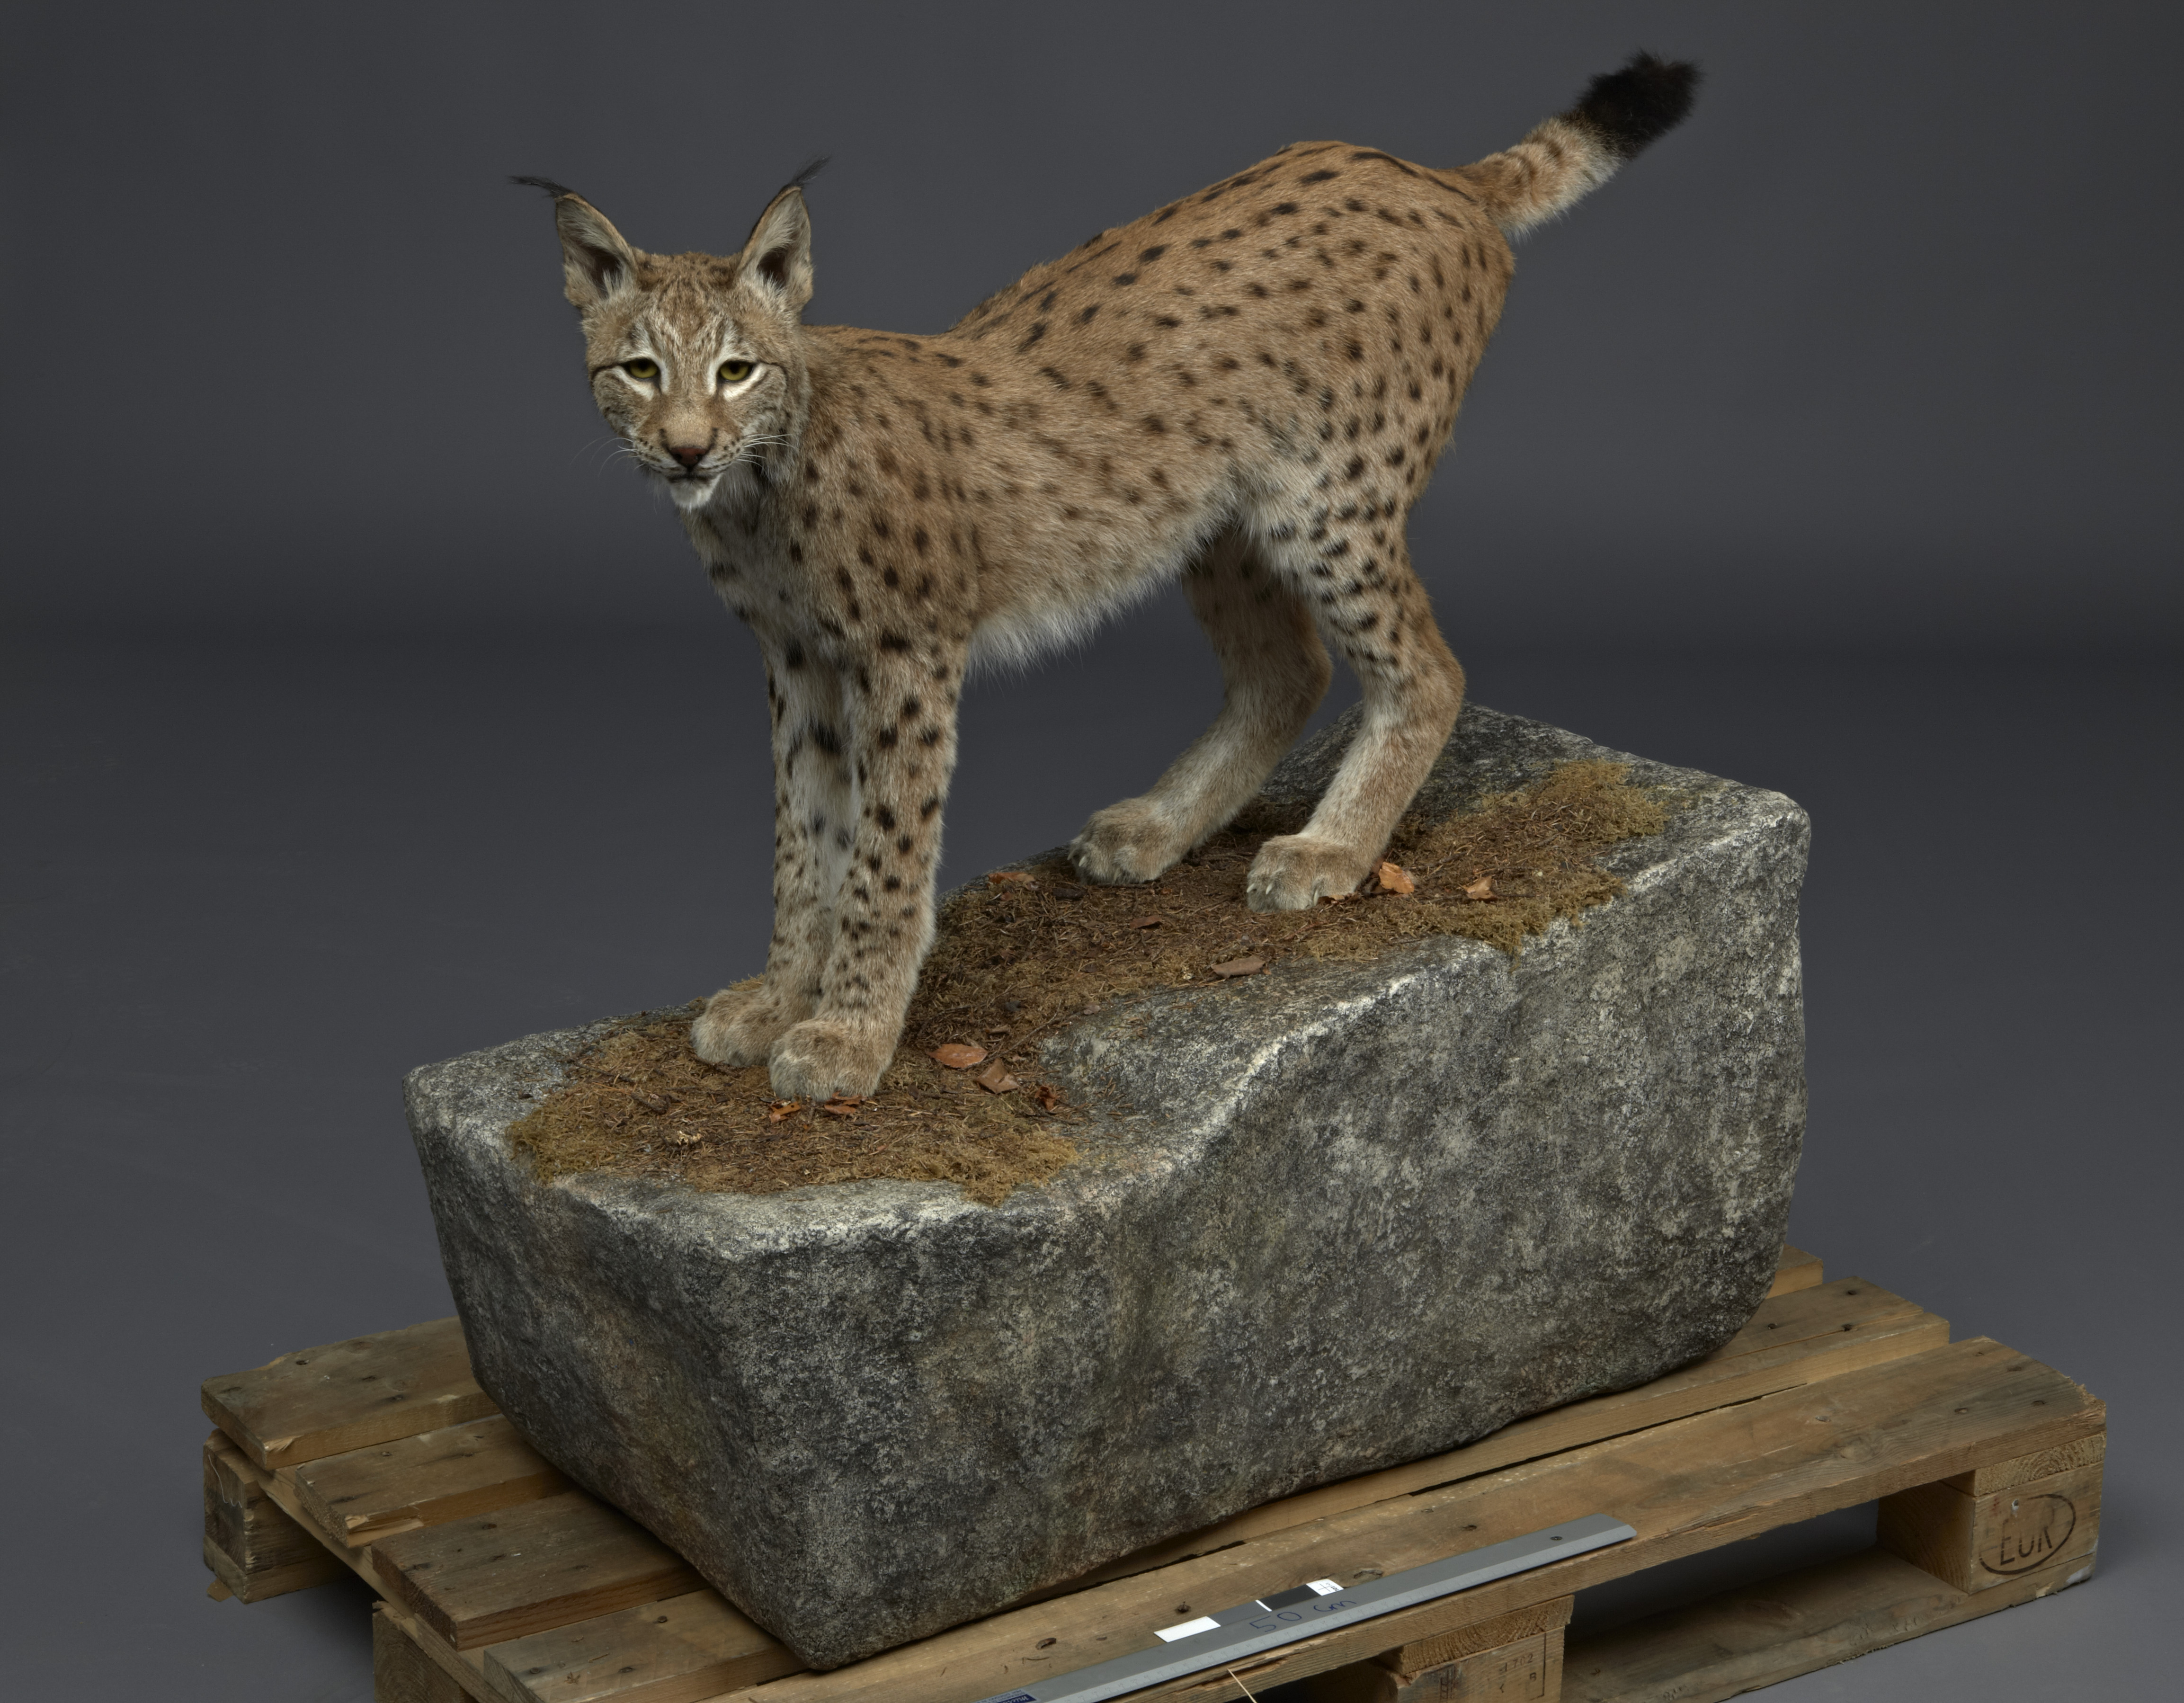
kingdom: Animalia
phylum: Chordata
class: Mammalia
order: Carnivora
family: Felidae
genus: Lynx
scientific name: Lynx lynx
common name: Eurasian lynx
